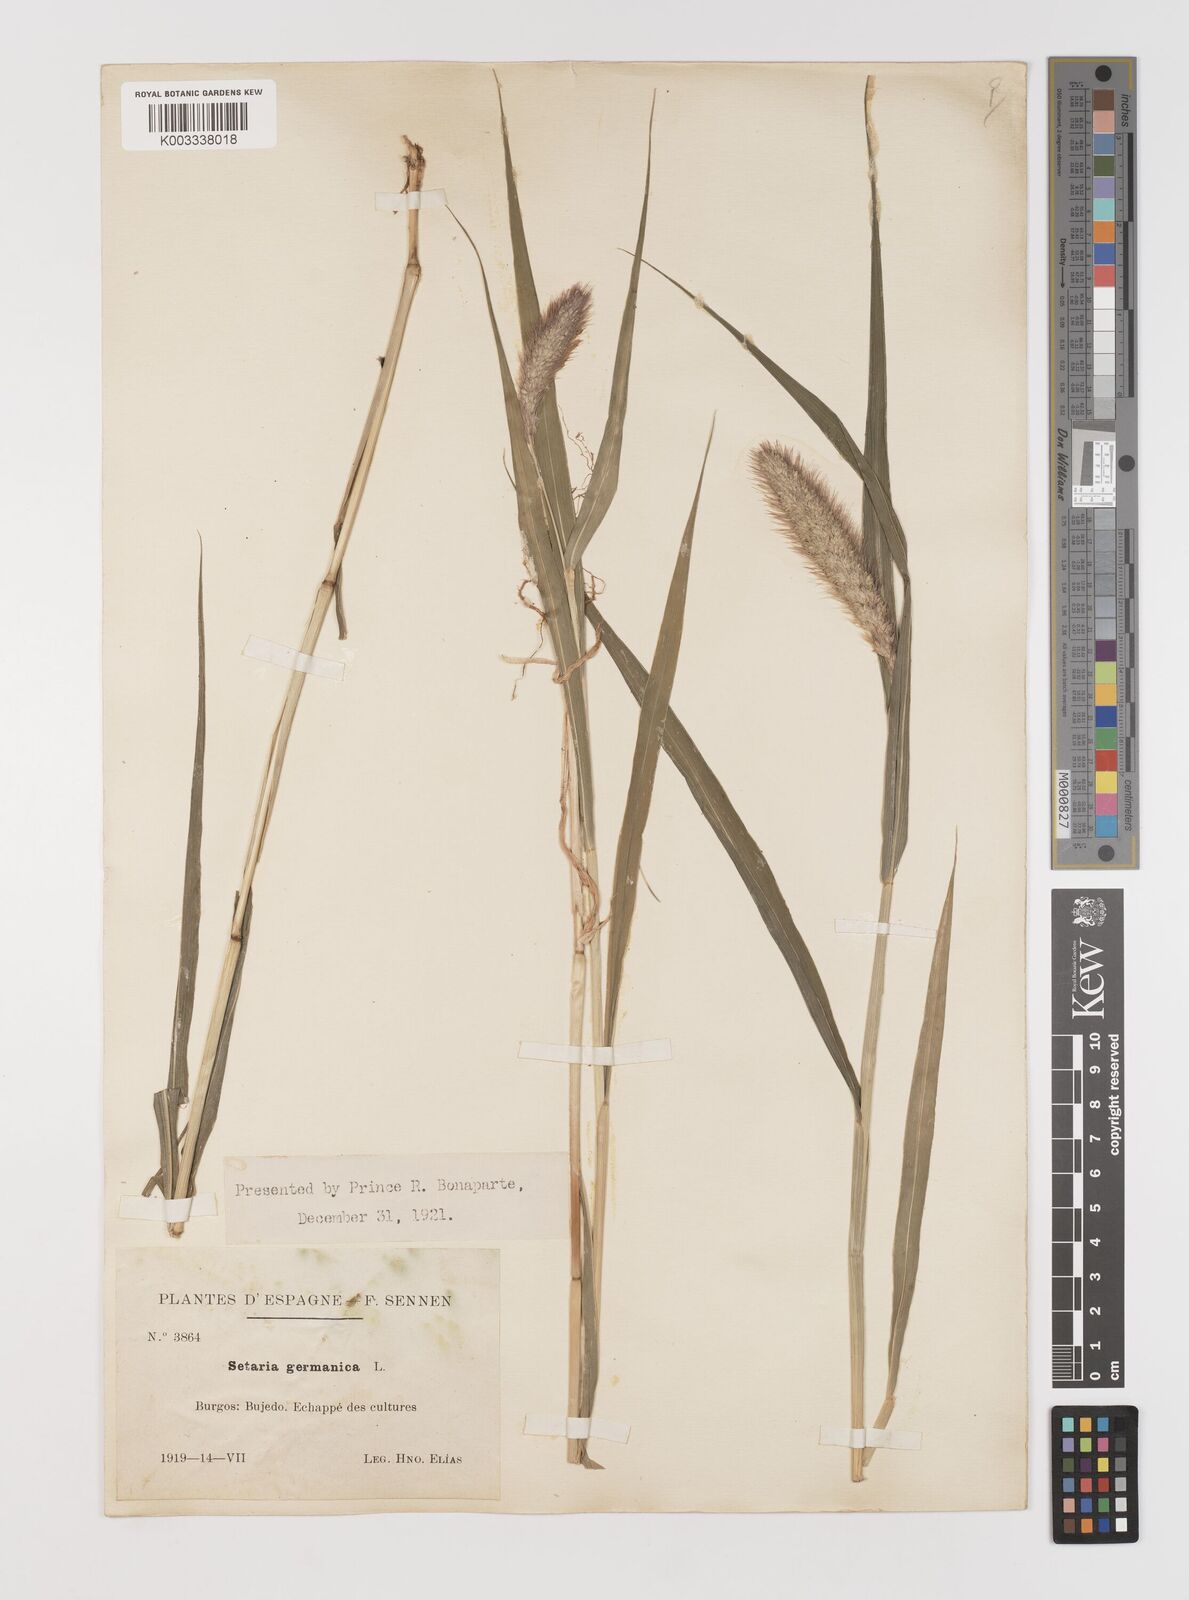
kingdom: Plantae
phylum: Tracheophyta
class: Liliopsida
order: Poales
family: Poaceae
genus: Setaria
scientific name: Setaria italica
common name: Foxtail bristle-grass
